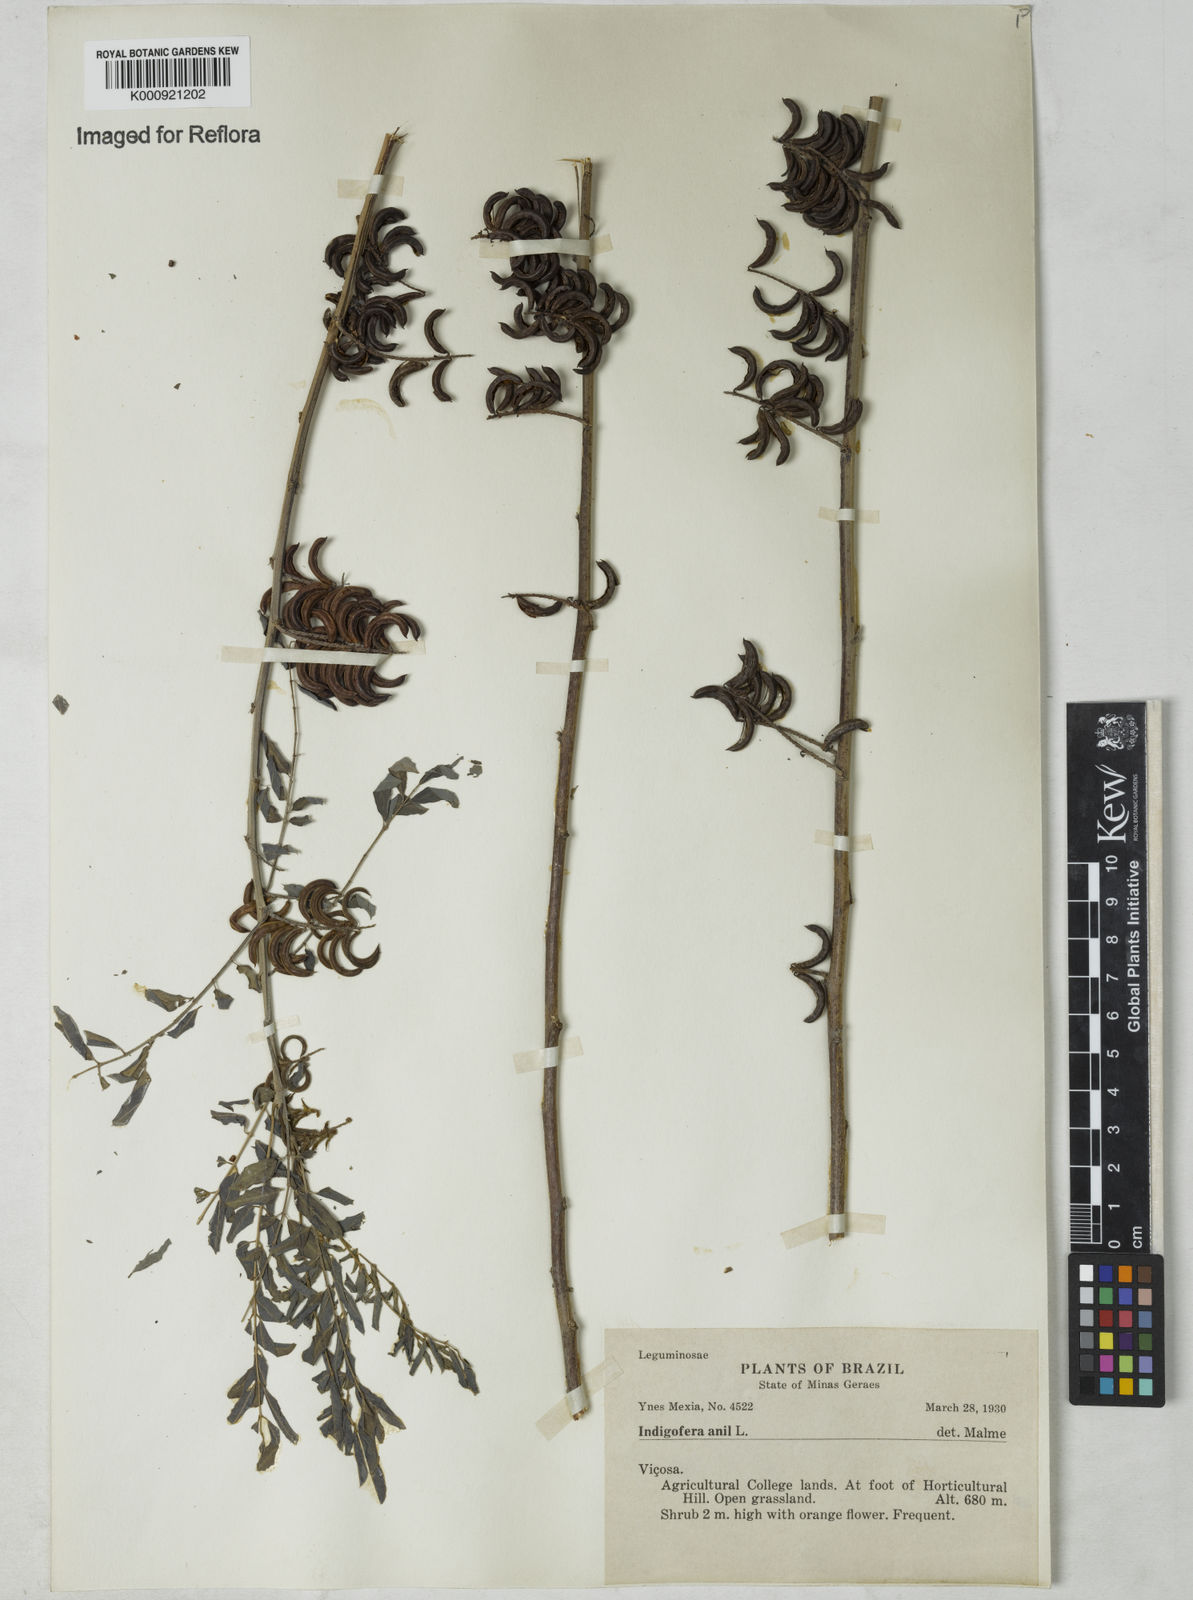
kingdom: Plantae
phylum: Tracheophyta
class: Magnoliopsida
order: Fabales
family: Fabaceae
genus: Indigofera
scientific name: Indigofera suffruticosa
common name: Anil de pasto
